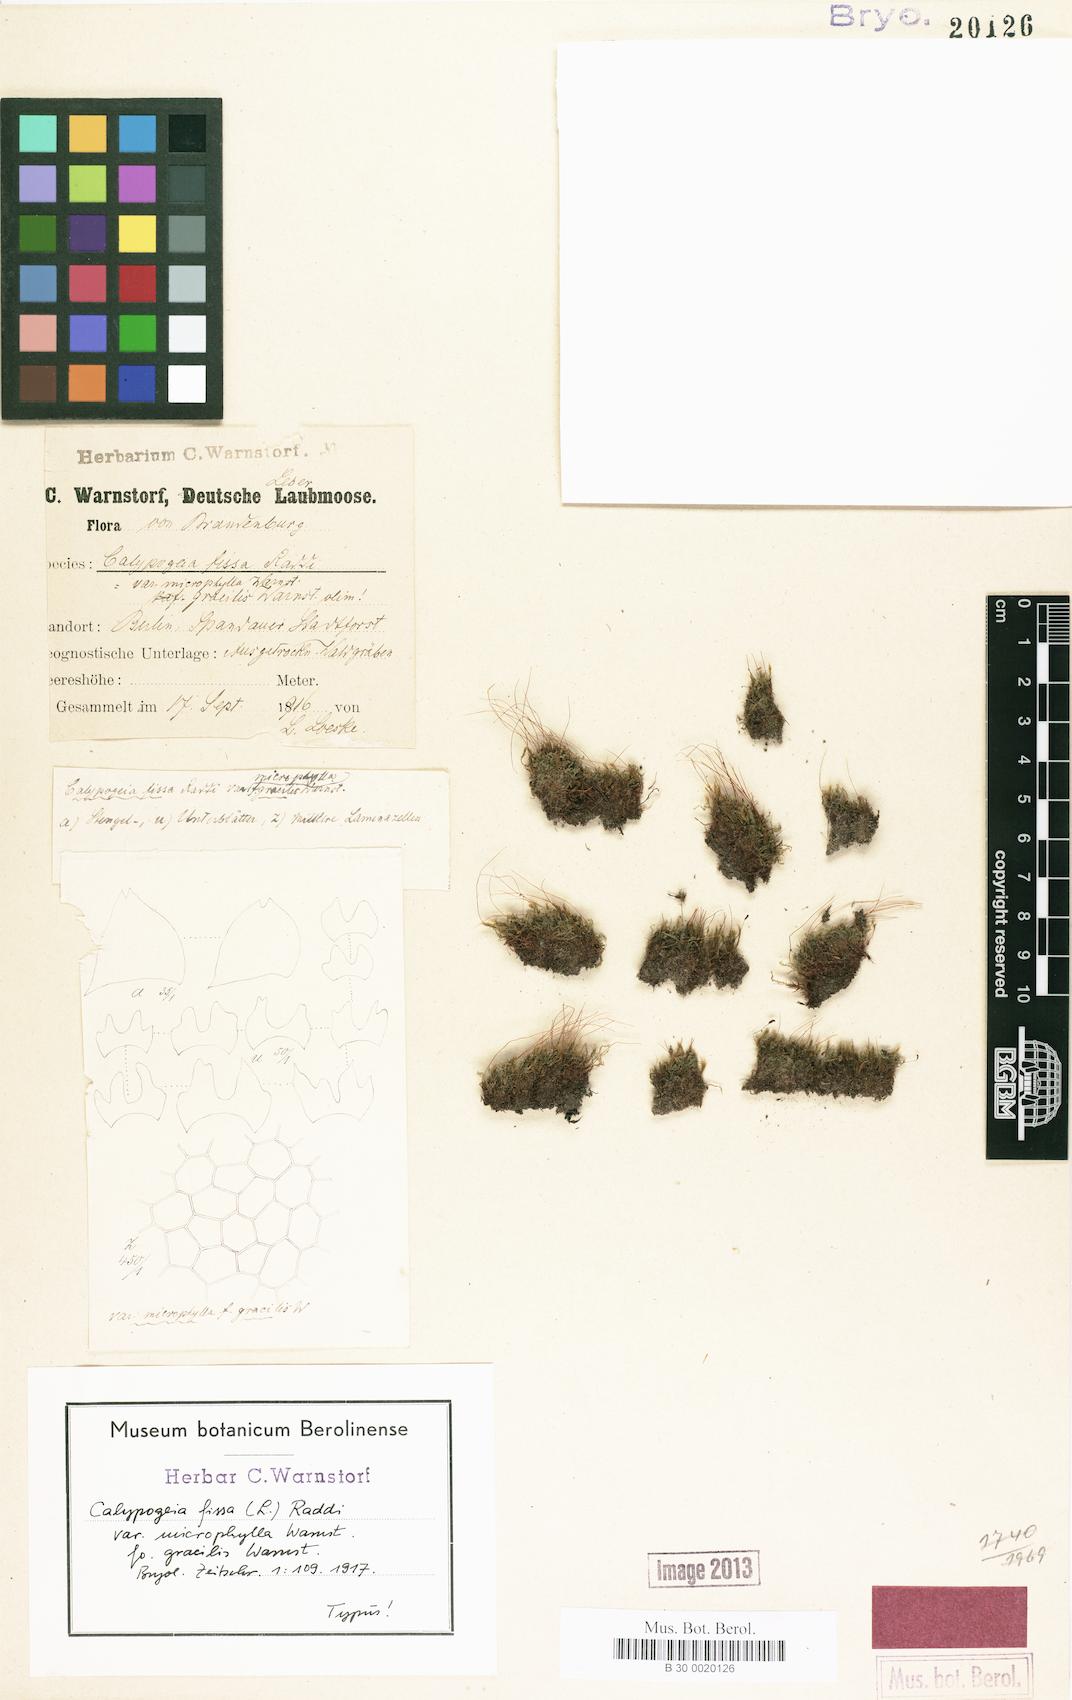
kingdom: Plantae
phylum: Marchantiophyta
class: Jungermanniopsida
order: Jungermanniales
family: Calypogeiaceae
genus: Calypogeia
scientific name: Calypogeia fissa
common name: Common pouchwort
